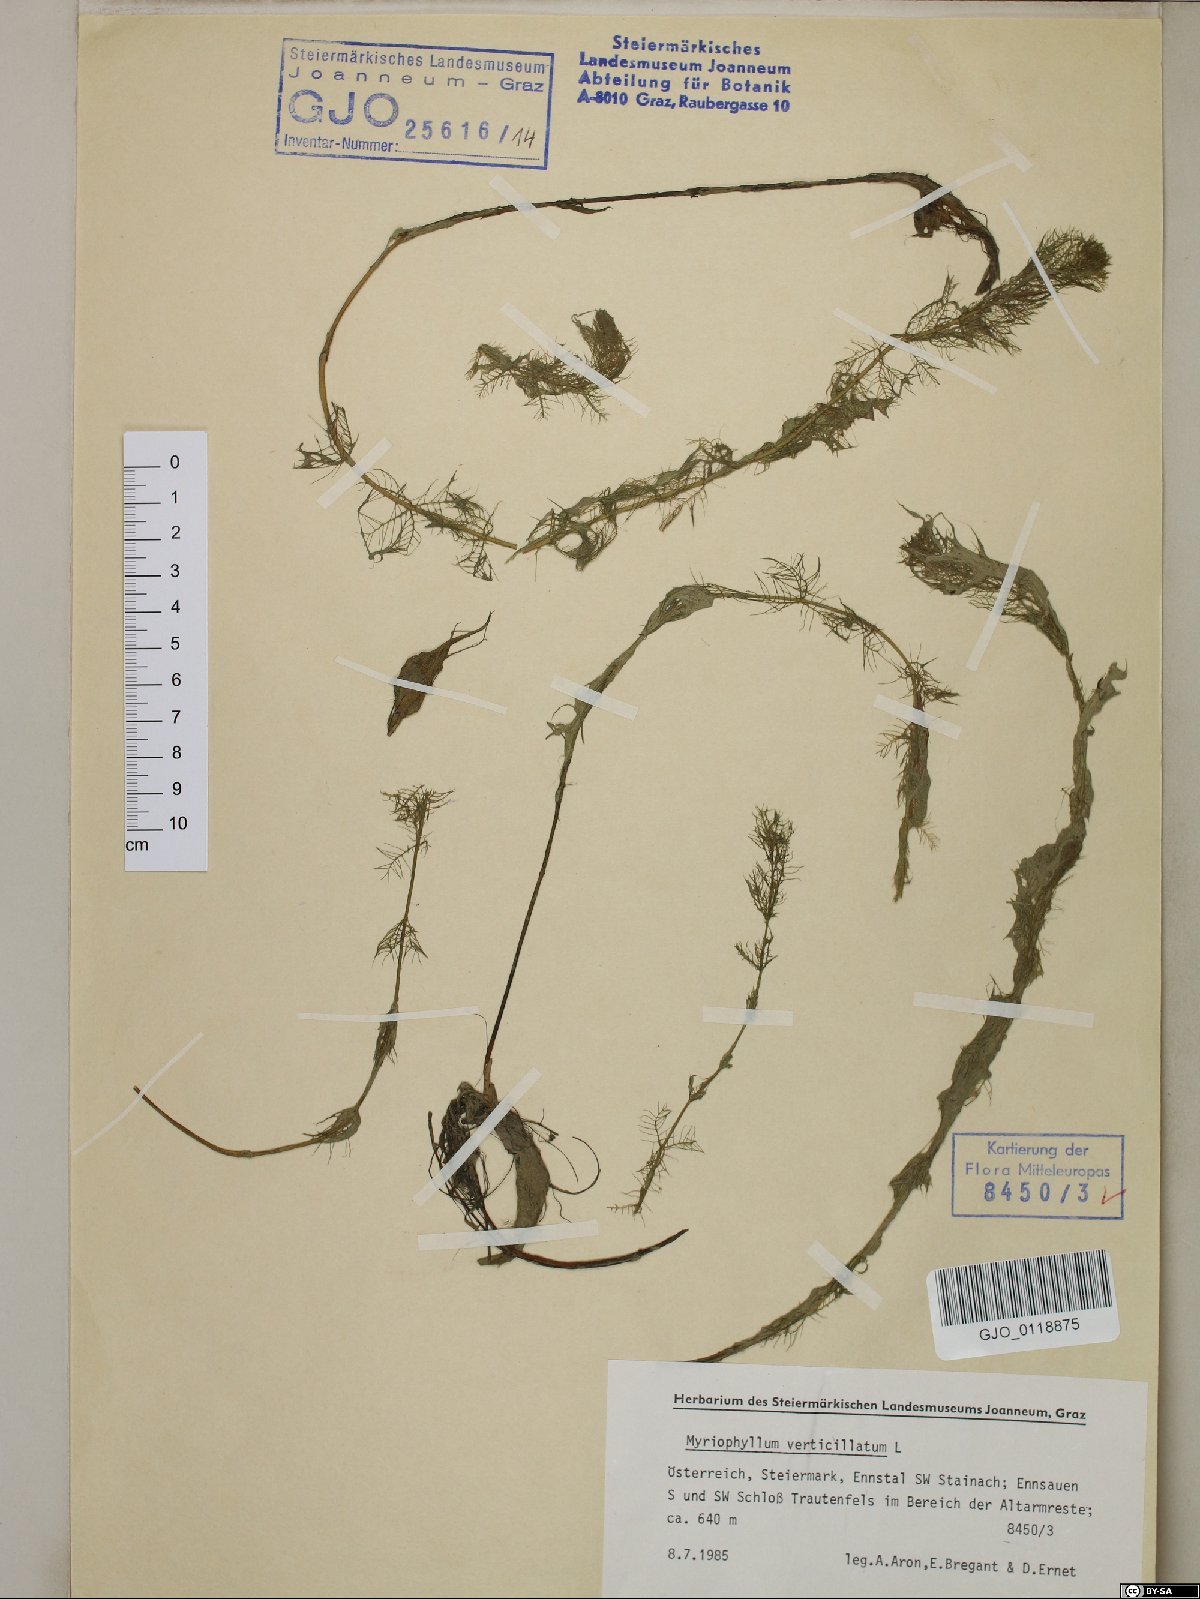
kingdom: Plantae
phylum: Tracheophyta
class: Magnoliopsida
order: Saxifragales
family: Haloragaceae
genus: Myriophyllum
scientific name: Myriophyllum verticillatum
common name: Whorled water-milfoil
